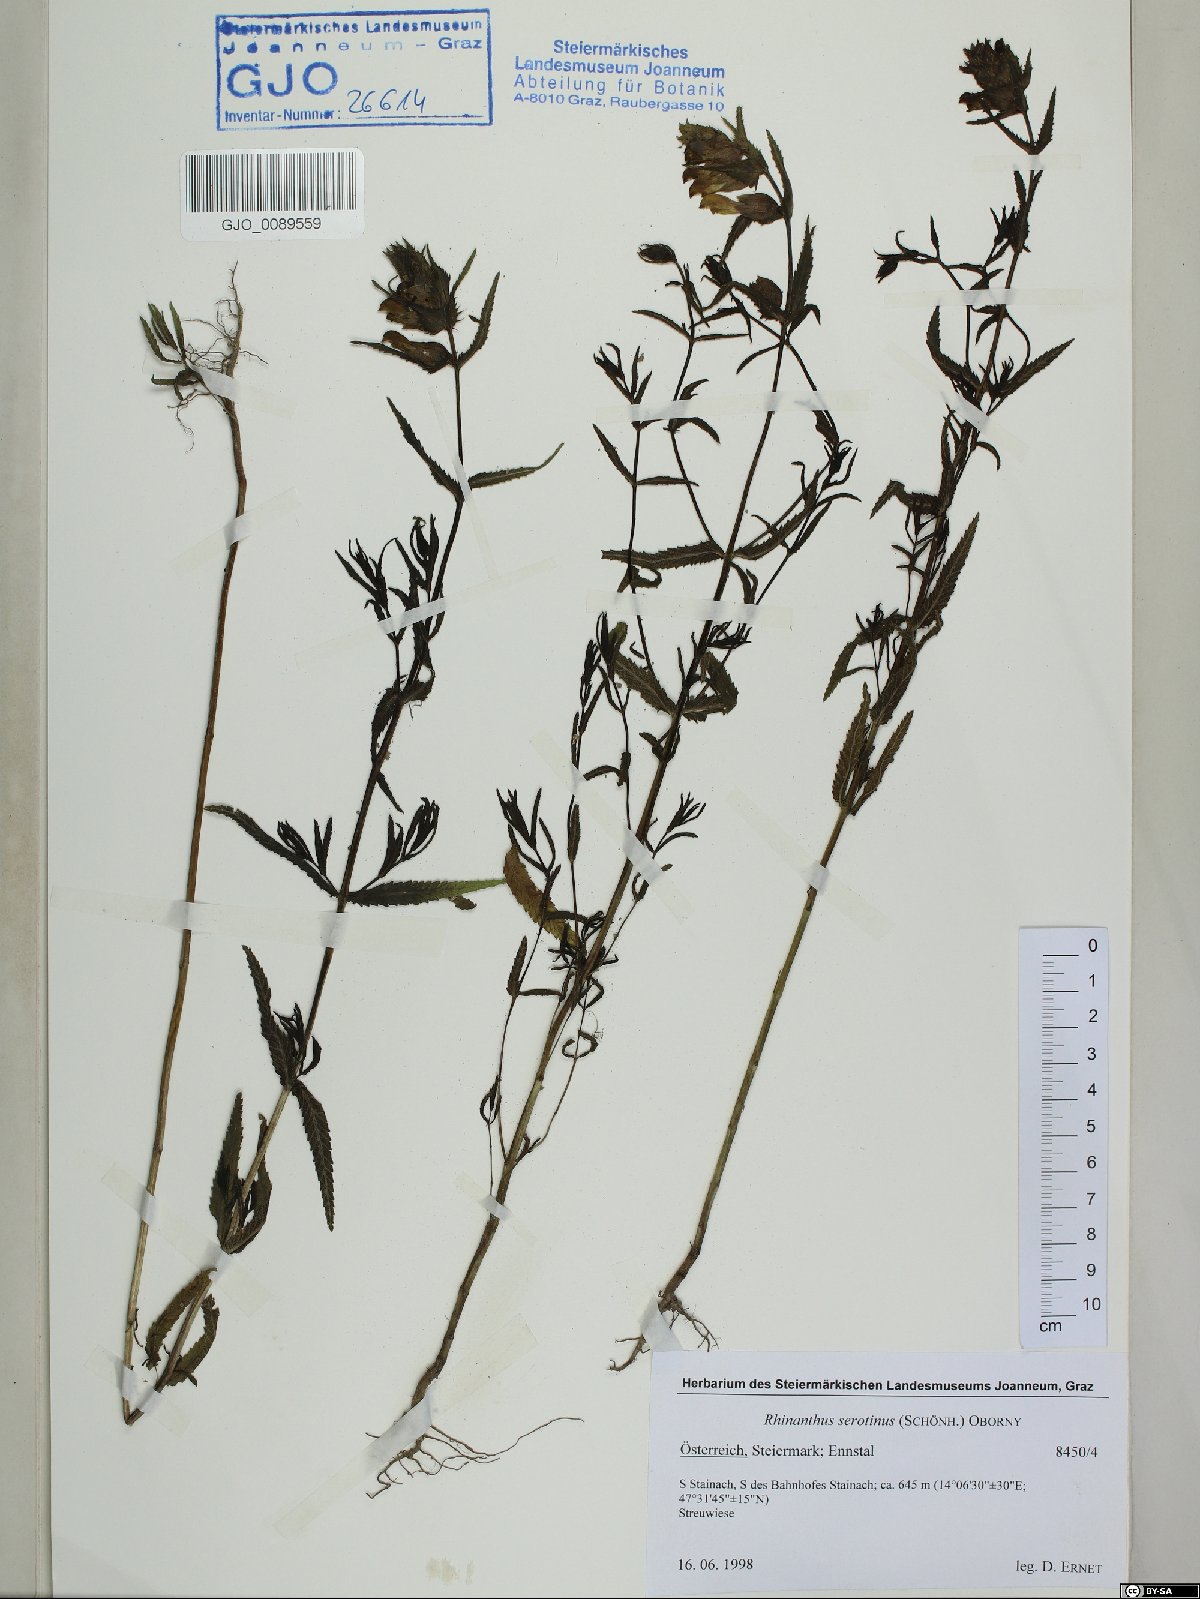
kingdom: Plantae
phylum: Tracheophyta
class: Magnoliopsida
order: Lamiales
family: Orobanchaceae
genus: Rhinanthus
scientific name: Rhinanthus serotinus
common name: Late-flowering yellow rattle
